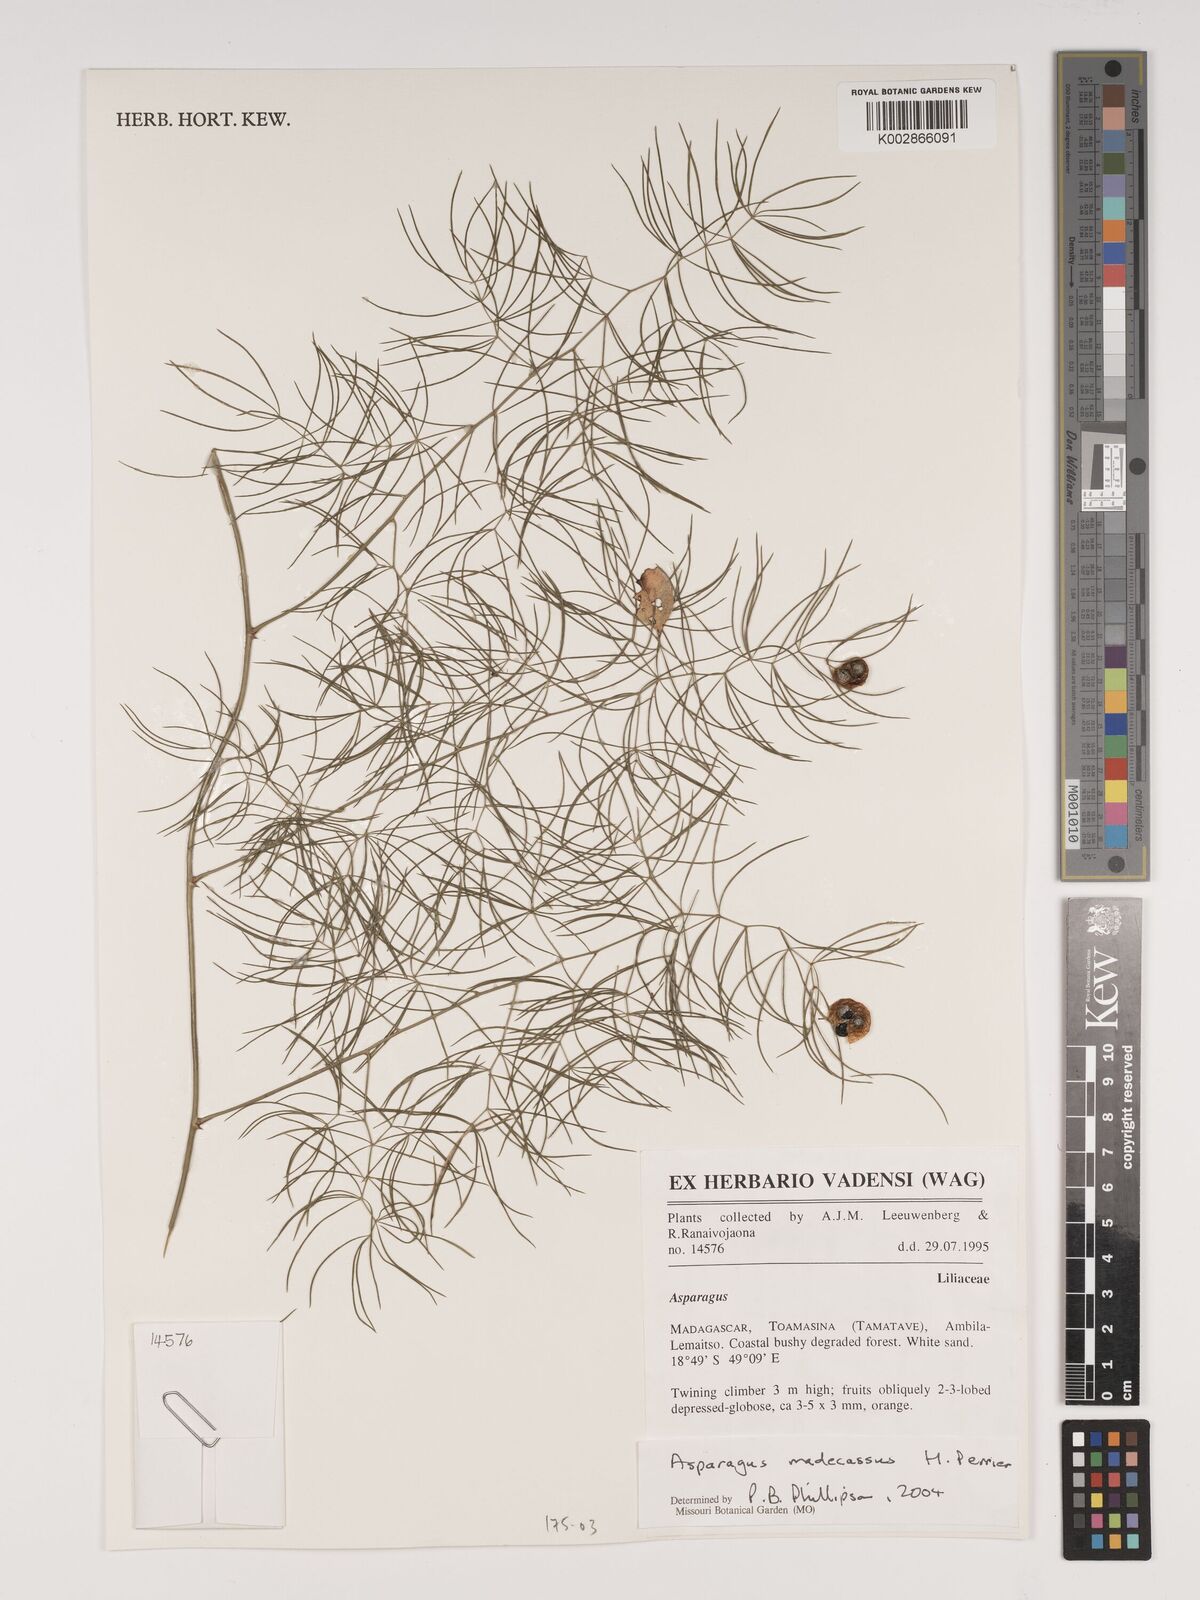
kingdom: Plantae
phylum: Tracheophyta
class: Liliopsida
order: Asparagales
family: Asparagaceae
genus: Asparagus
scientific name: Asparagus madecassus
